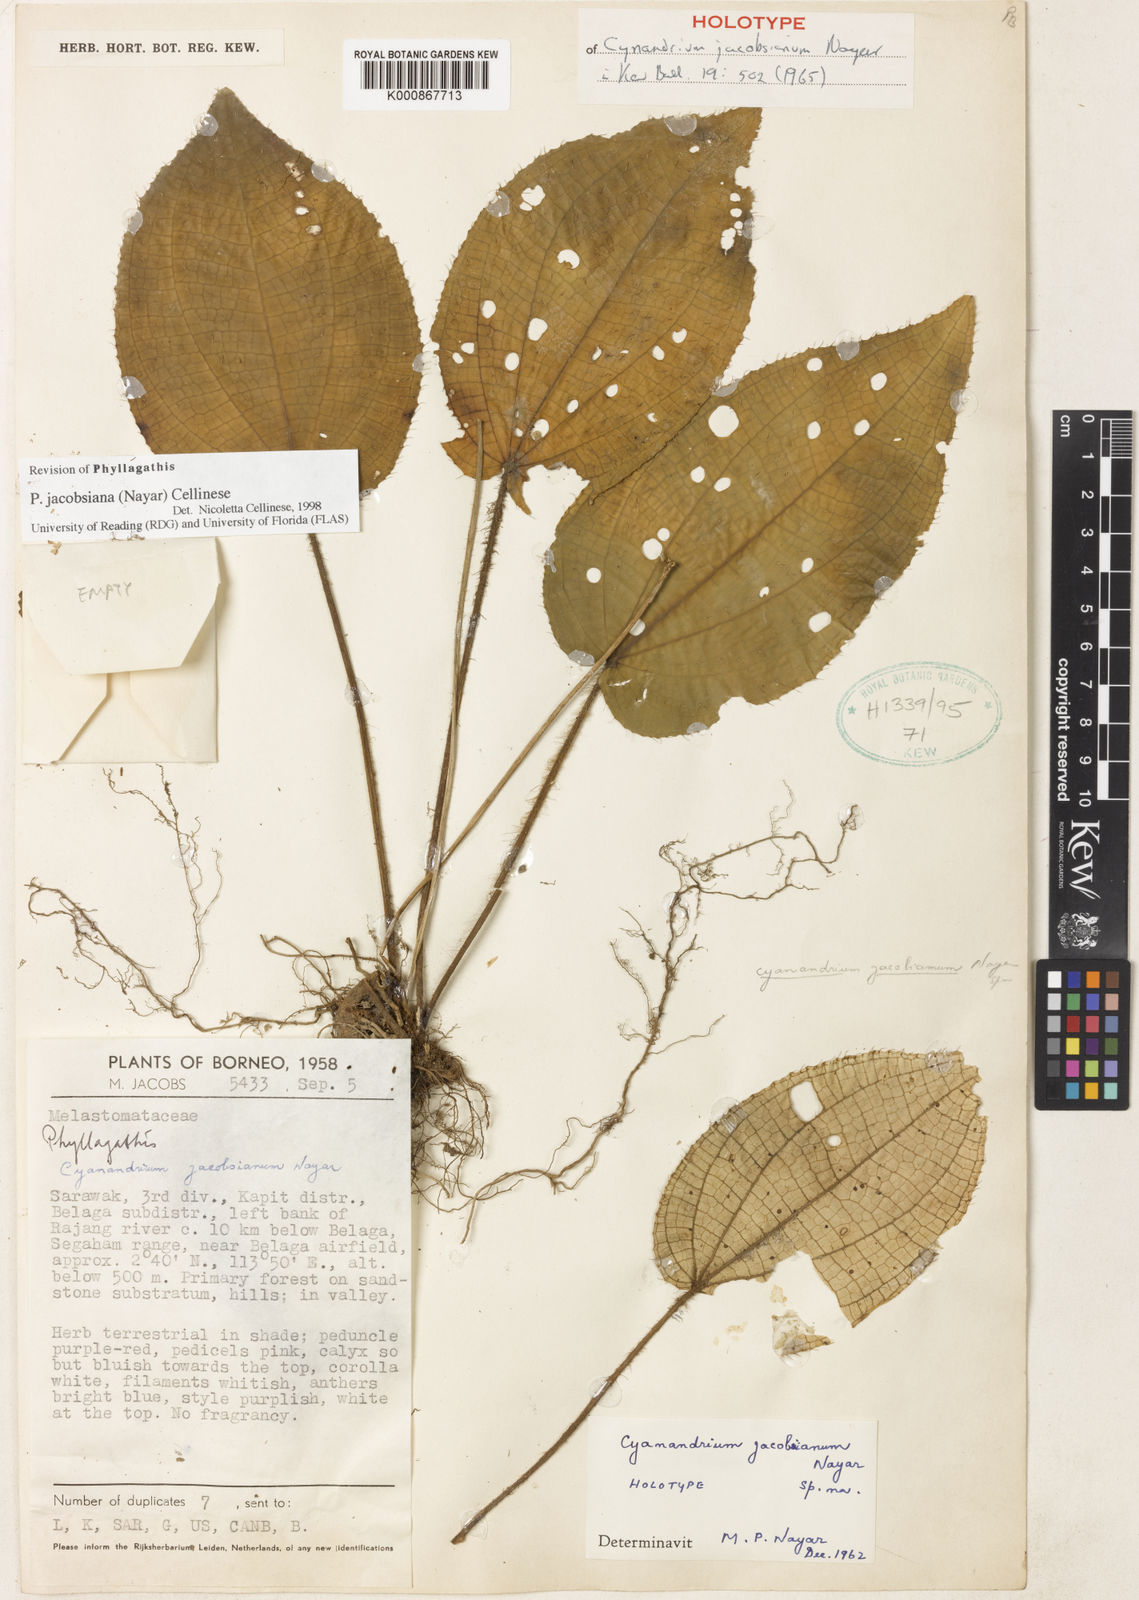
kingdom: Plantae
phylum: Tracheophyta
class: Magnoliopsida
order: Myrtales
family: Melastomataceae
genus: Cyanandrium
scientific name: Cyanandrium jacobsianum
